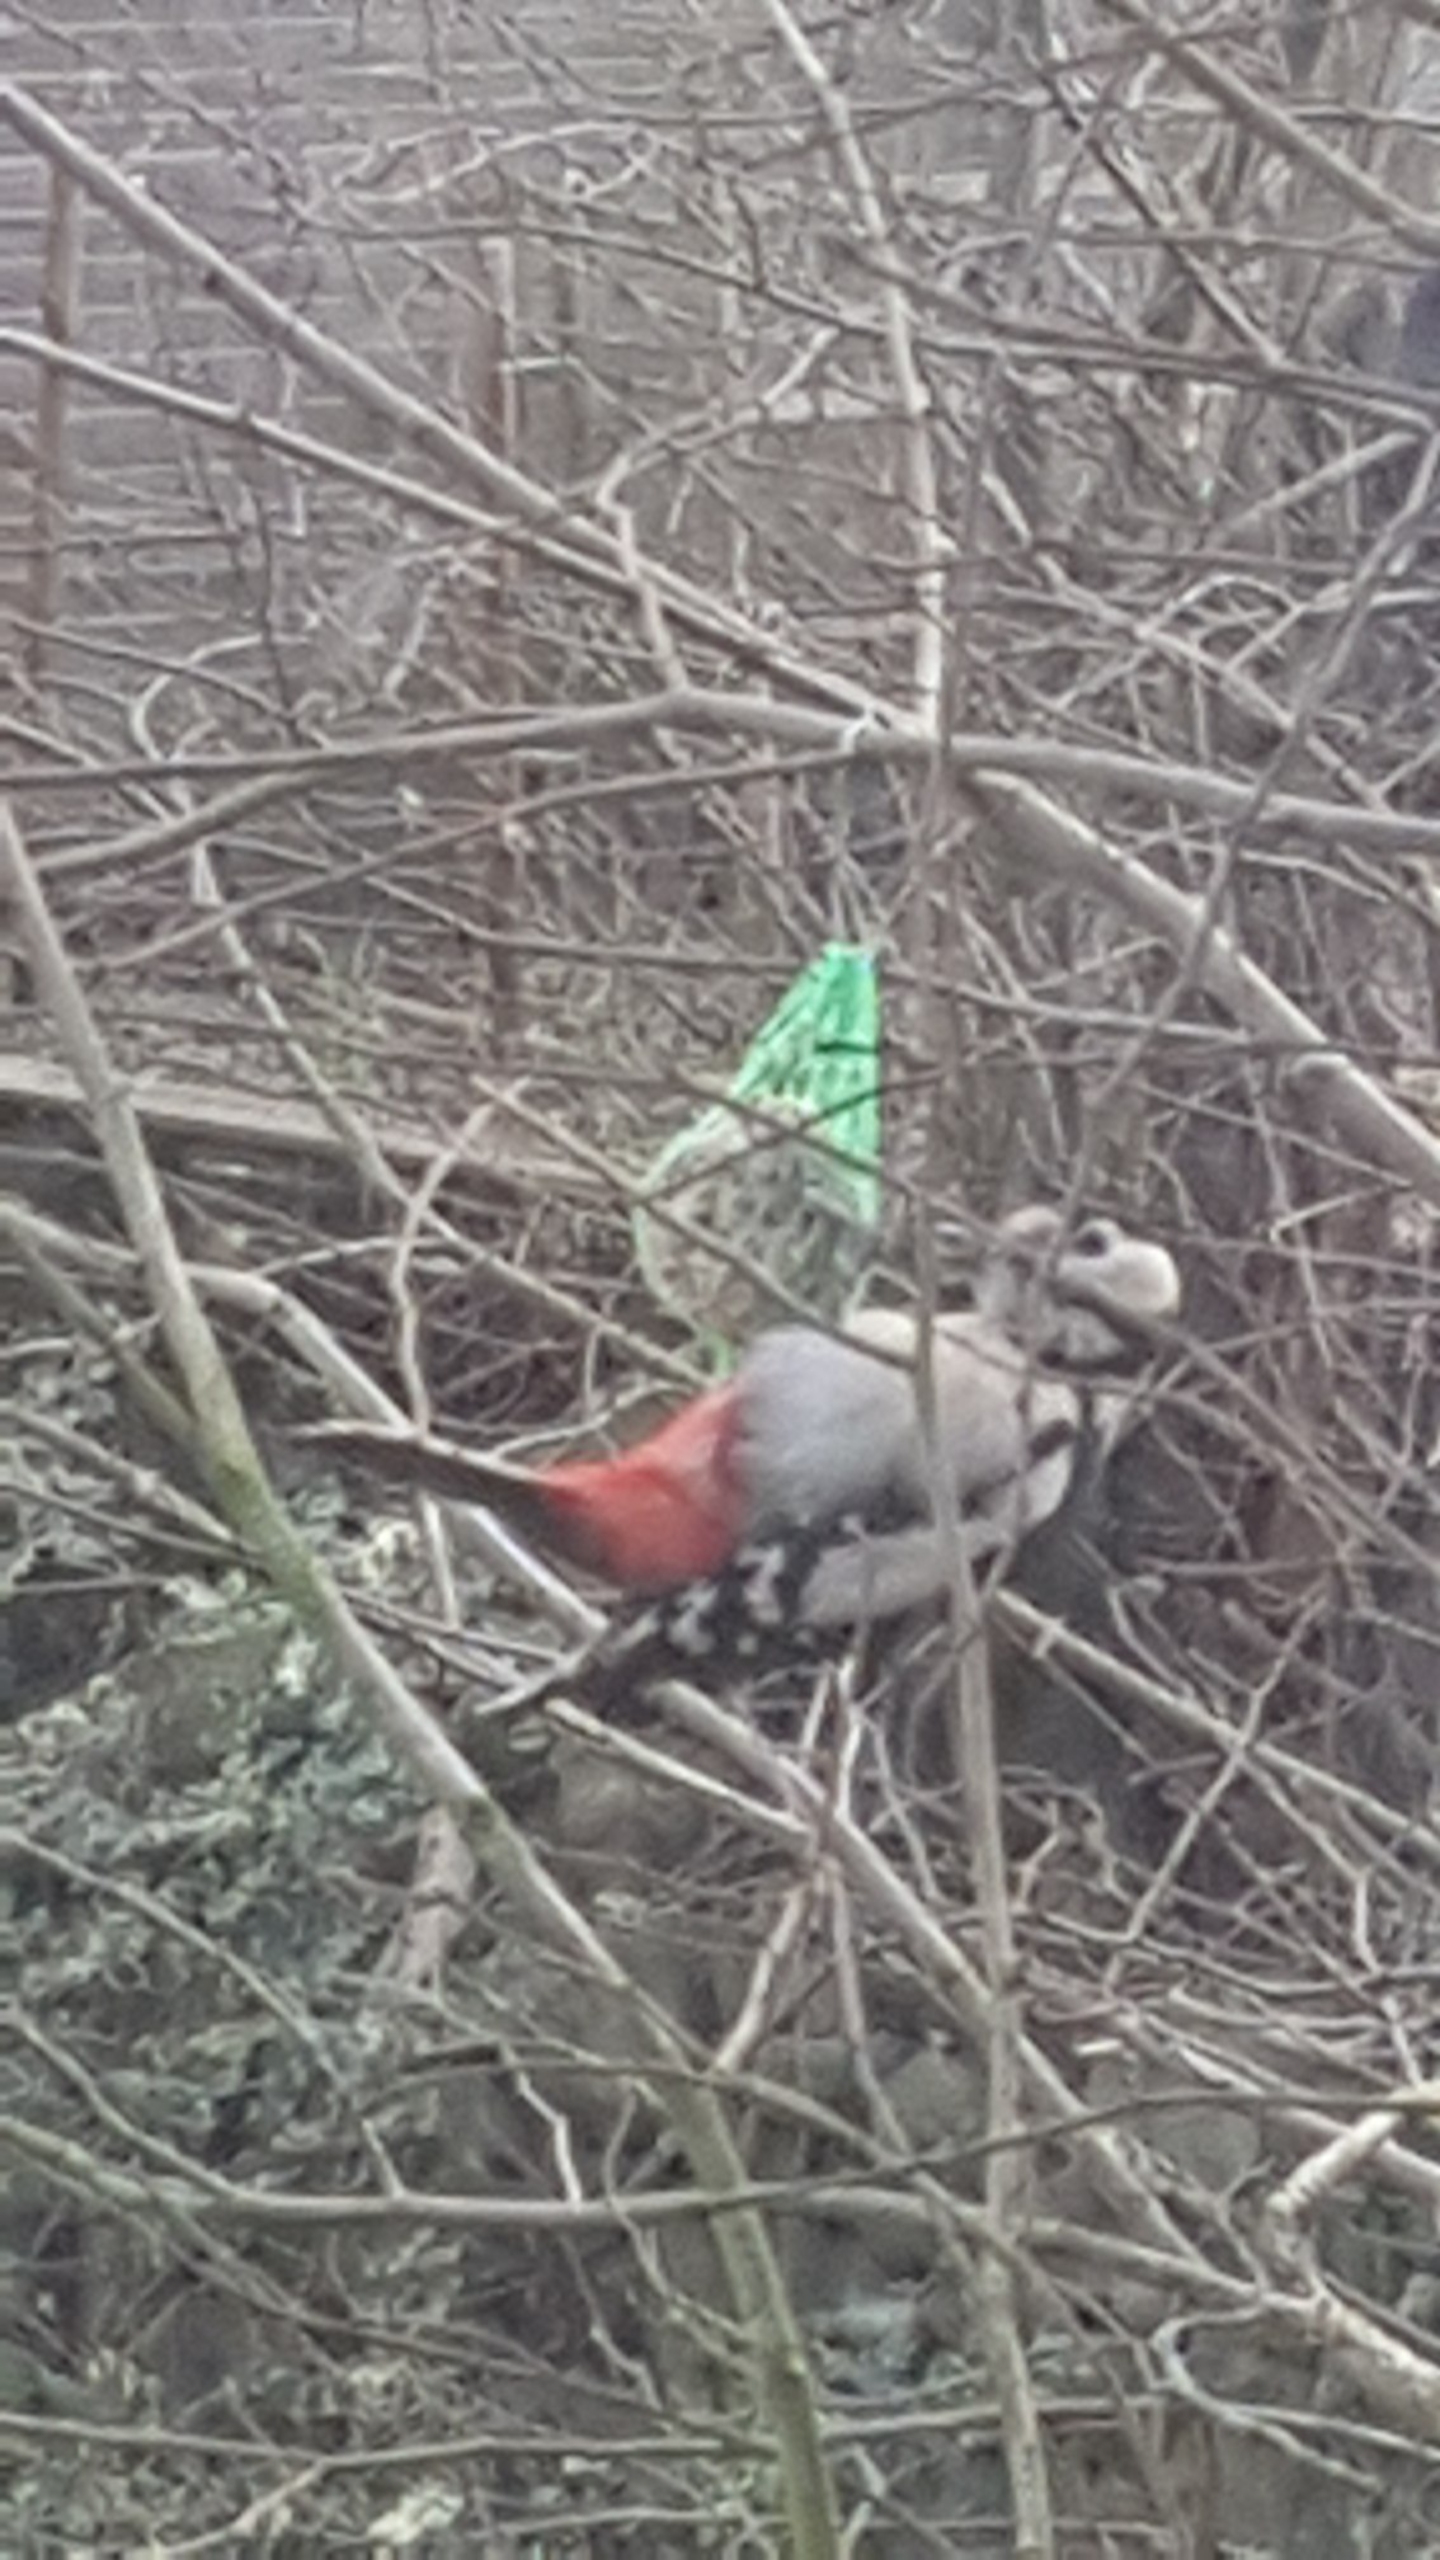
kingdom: Animalia
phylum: Chordata
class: Aves
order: Piciformes
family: Picidae
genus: Dendrocopos
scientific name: Dendrocopos major
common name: Stor flagspætte
